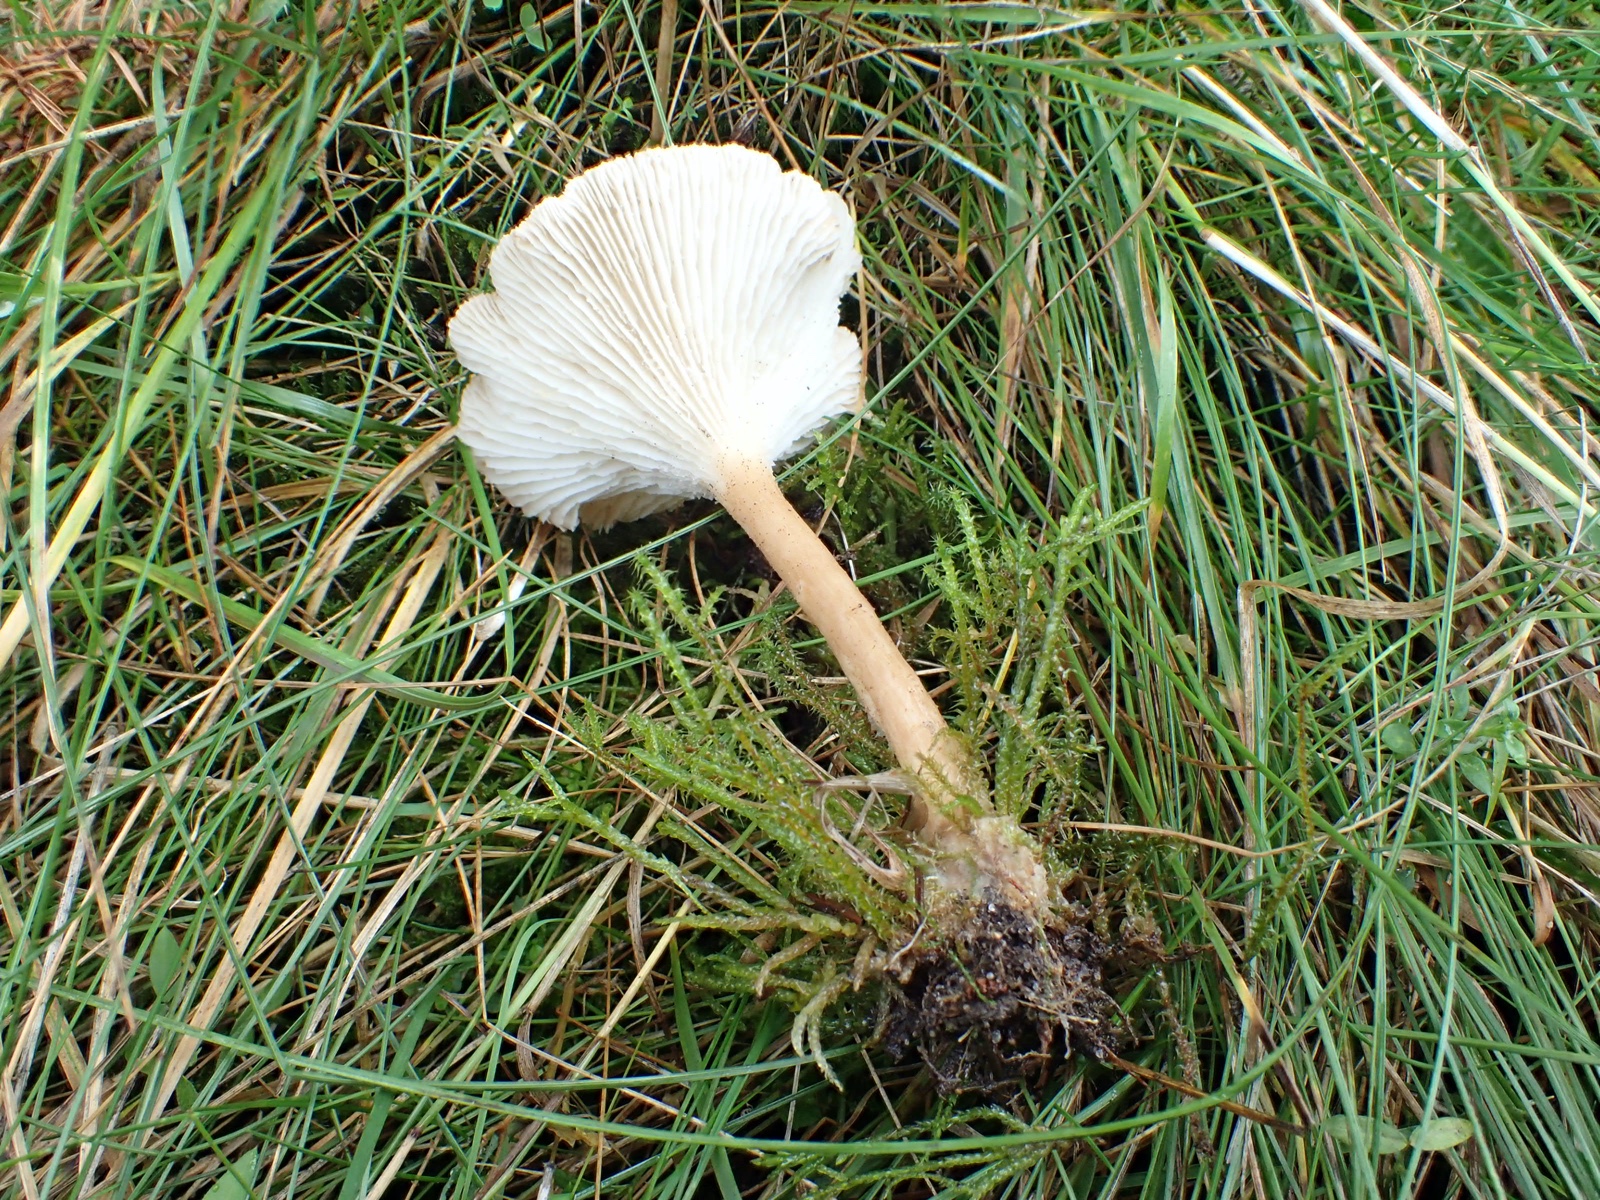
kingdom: Fungi
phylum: Basidiomycota
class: Agaricomycetes
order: Agaricales
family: Tricholomataceae
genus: Infundibulicybe
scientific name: Infundibulicybe
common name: tragthat
